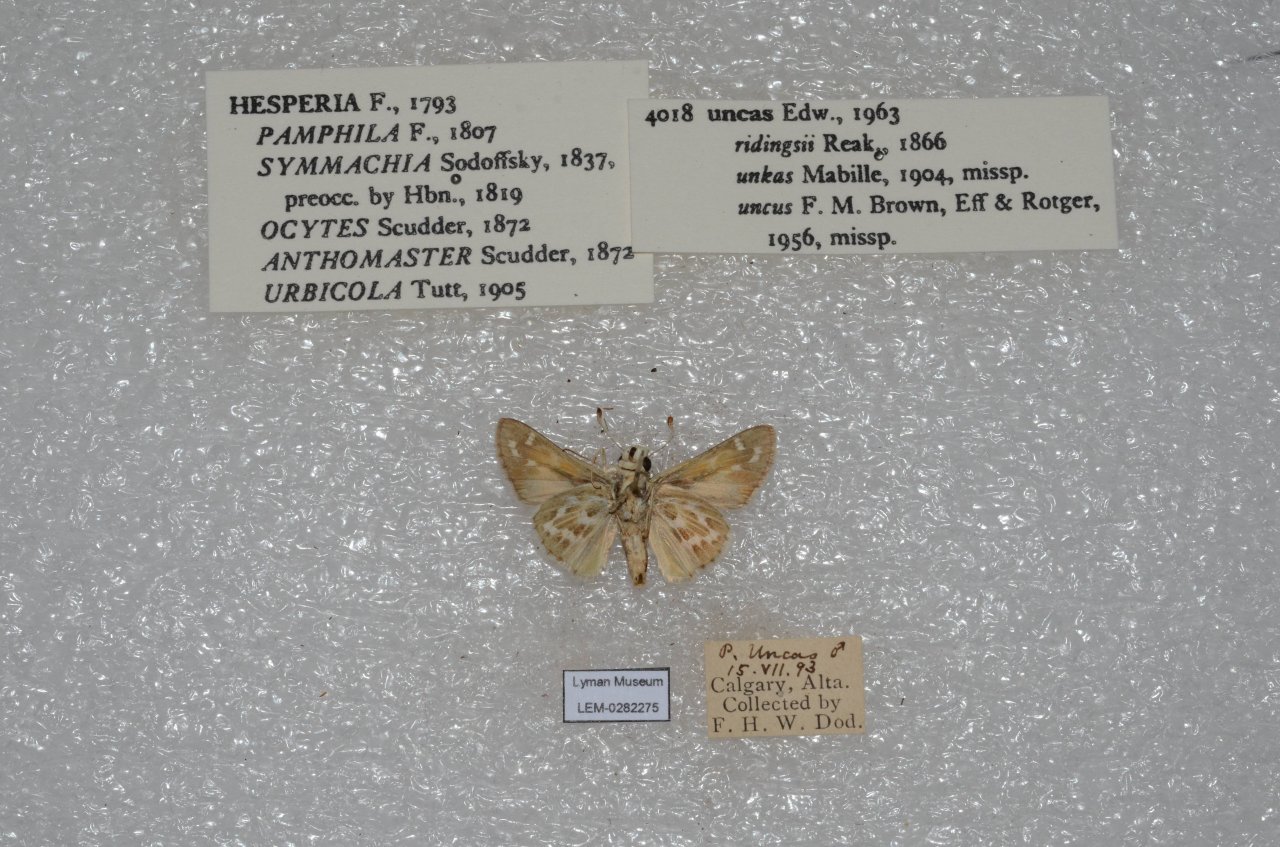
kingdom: Animalia
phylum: Arthropoda
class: Insecta
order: Lepidoptera
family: Hesperiidae
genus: Hesperia
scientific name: Hesperia uncas
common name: Uncas Skipper
